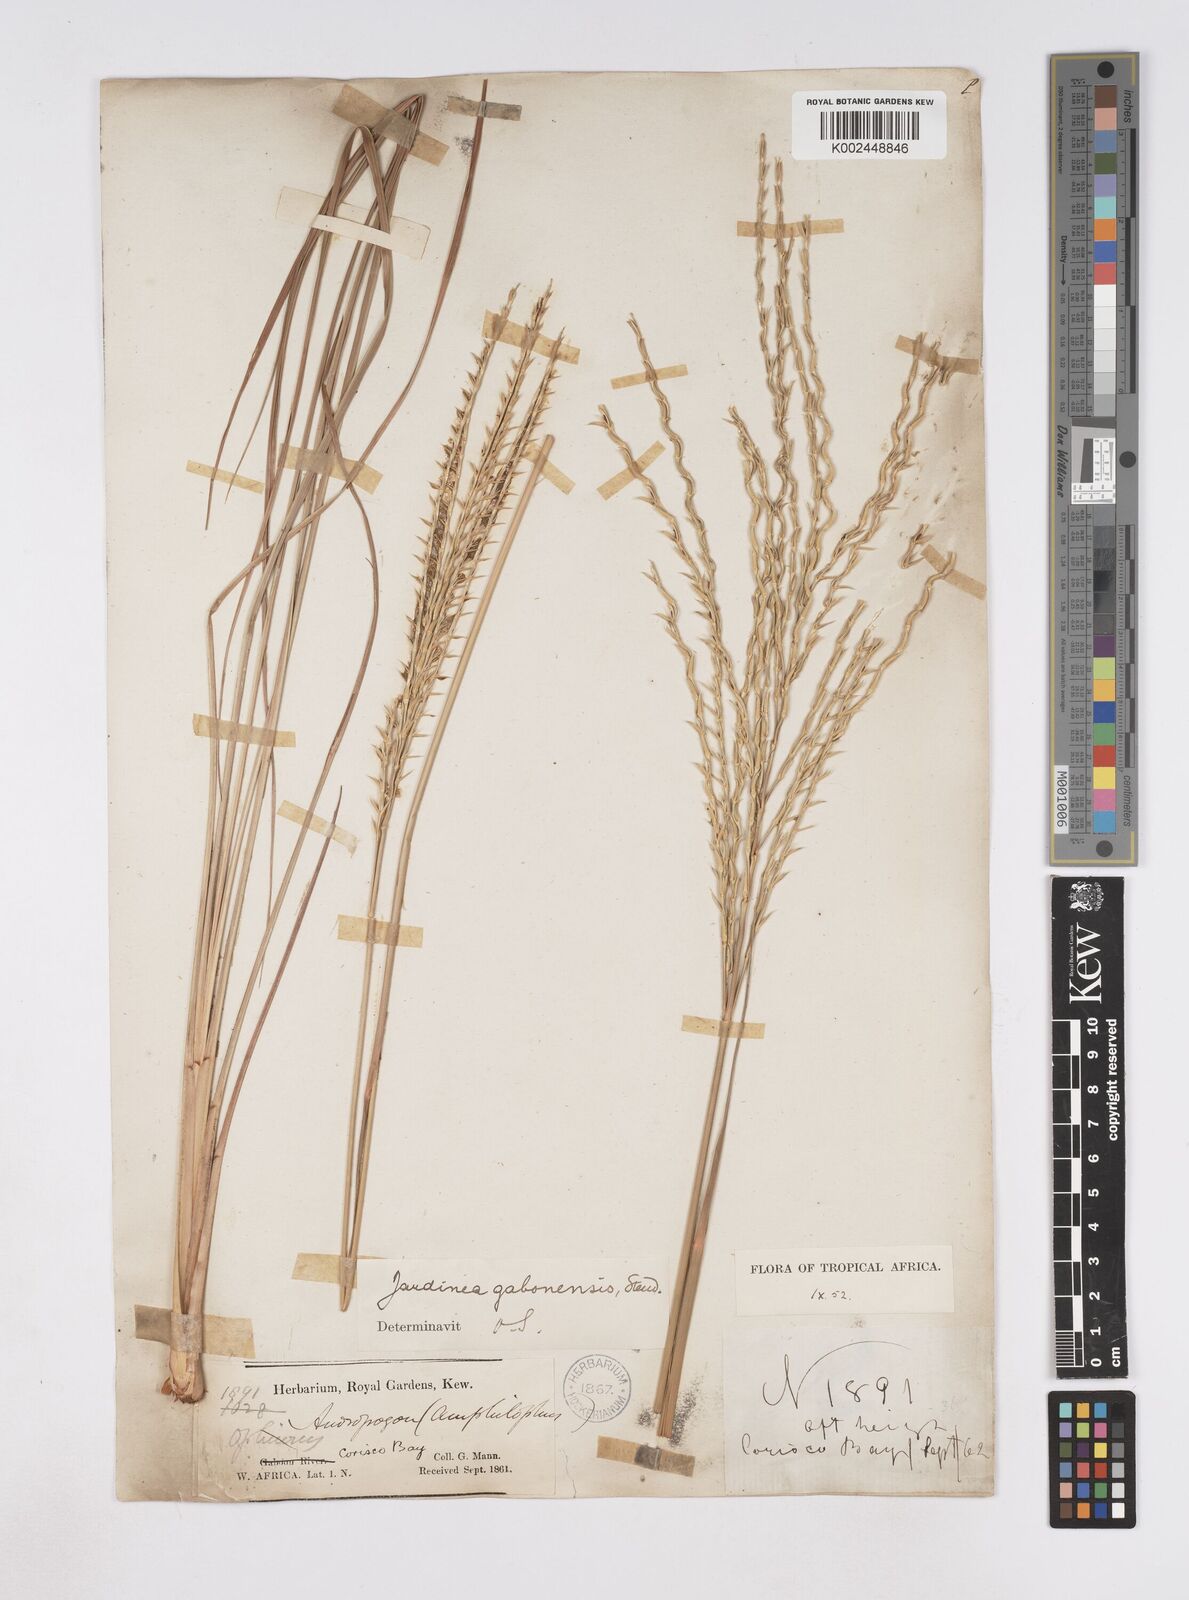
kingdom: Plantae
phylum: Tracheophyta
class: Liliopsida
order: Poales
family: Poaceae
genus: Phacelurus
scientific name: Phacelurus gabonensis
